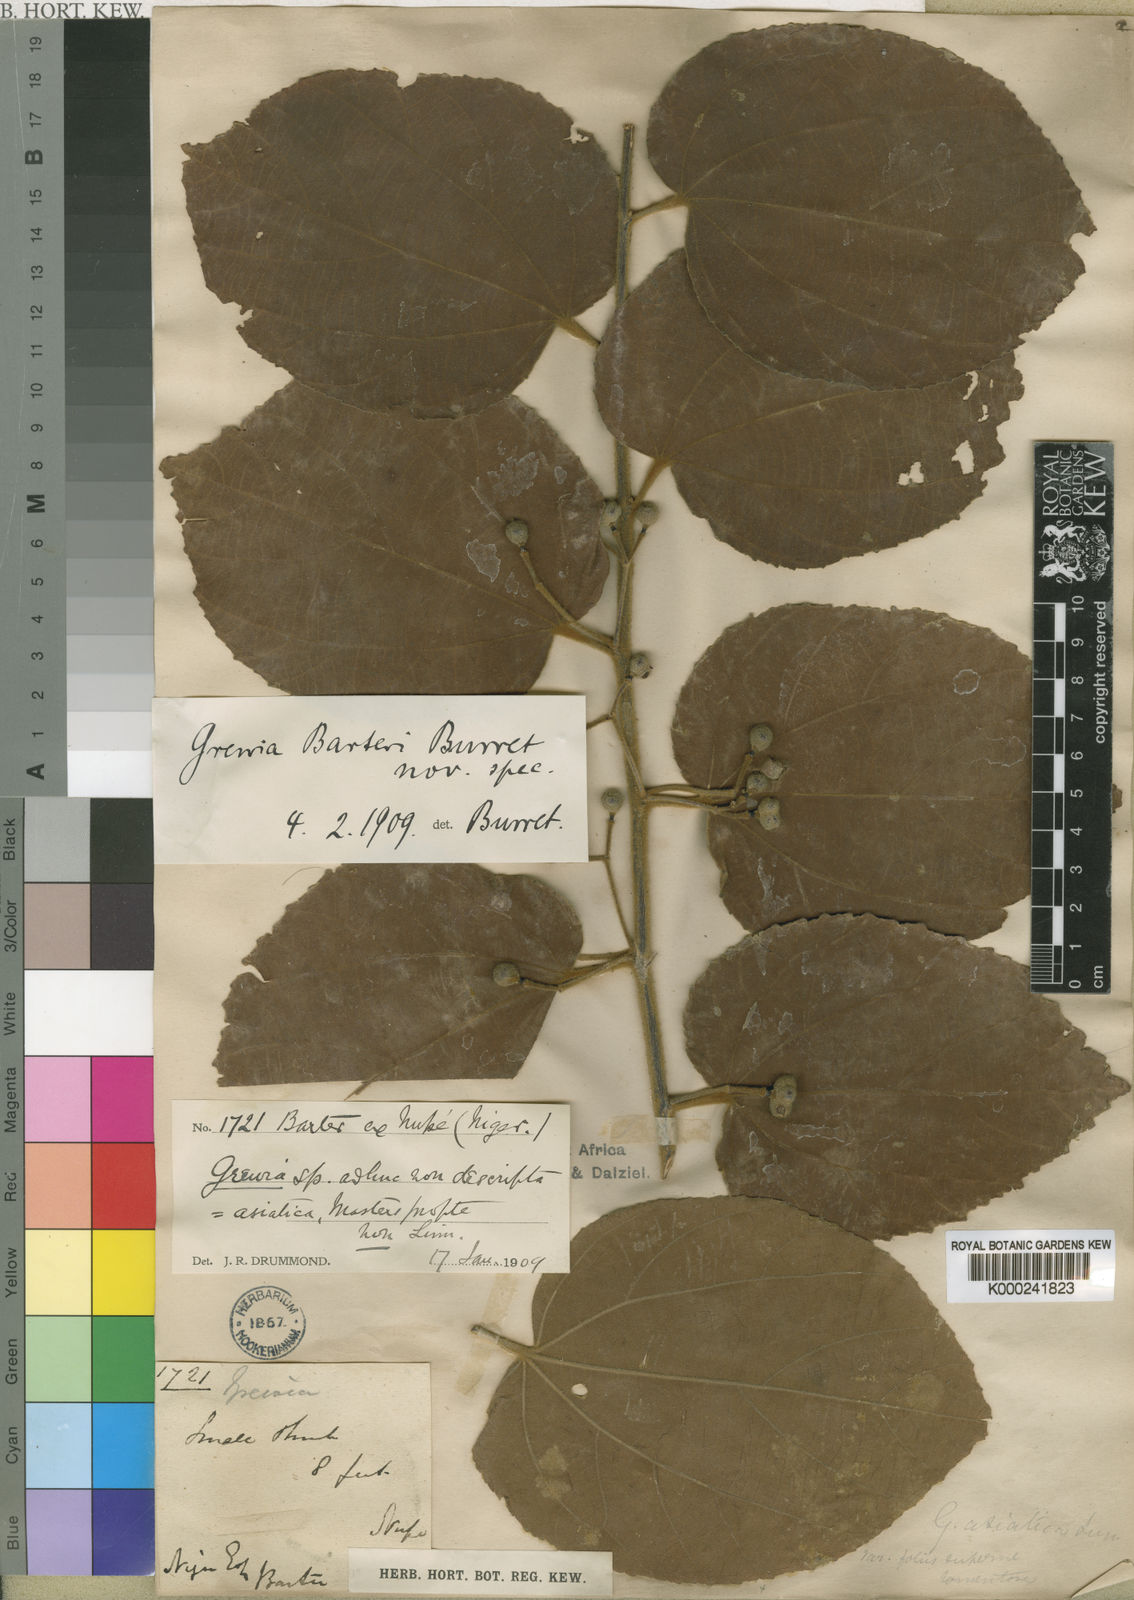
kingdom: Plantae
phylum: Tracheophyta
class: Magnoliopsida
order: Malvales
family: Malvaceae
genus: Grewia
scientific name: Grewia barteri
